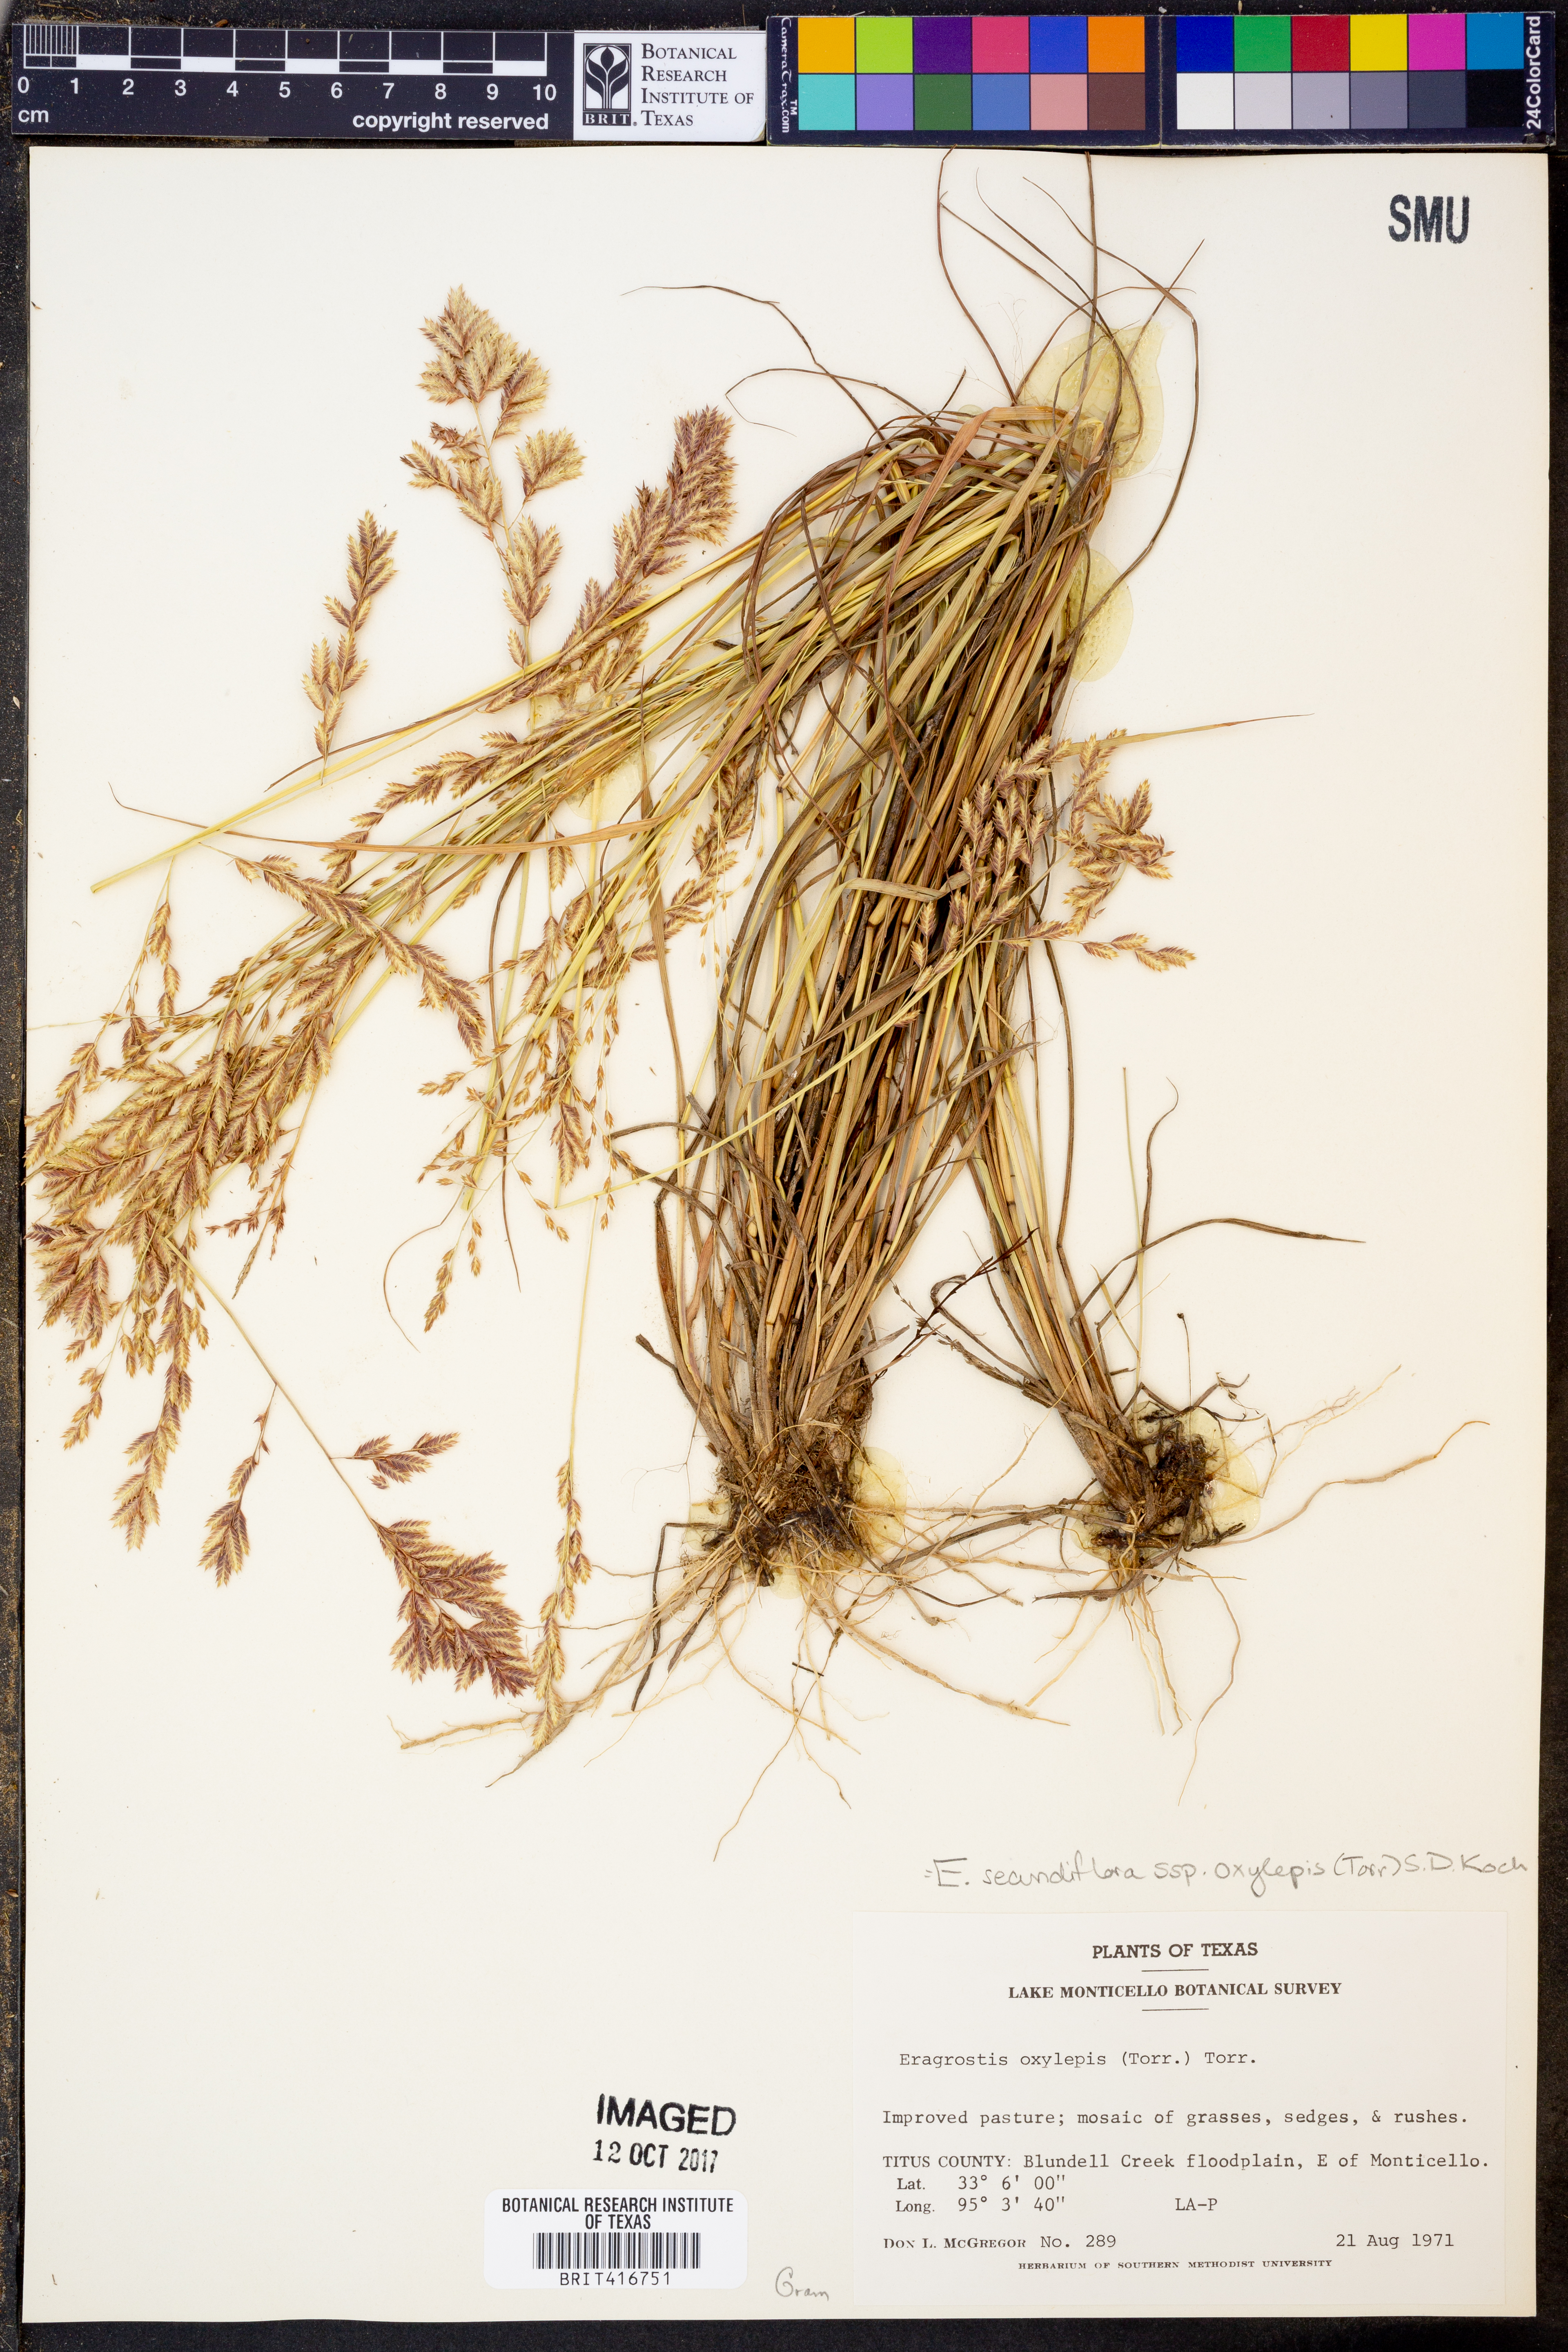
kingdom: Plantae
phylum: Tracheophyta
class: Liliopsida
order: Poales
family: Poaceae
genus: Eragrostis
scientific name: Eragrostis secundiflora
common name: Red love grass
